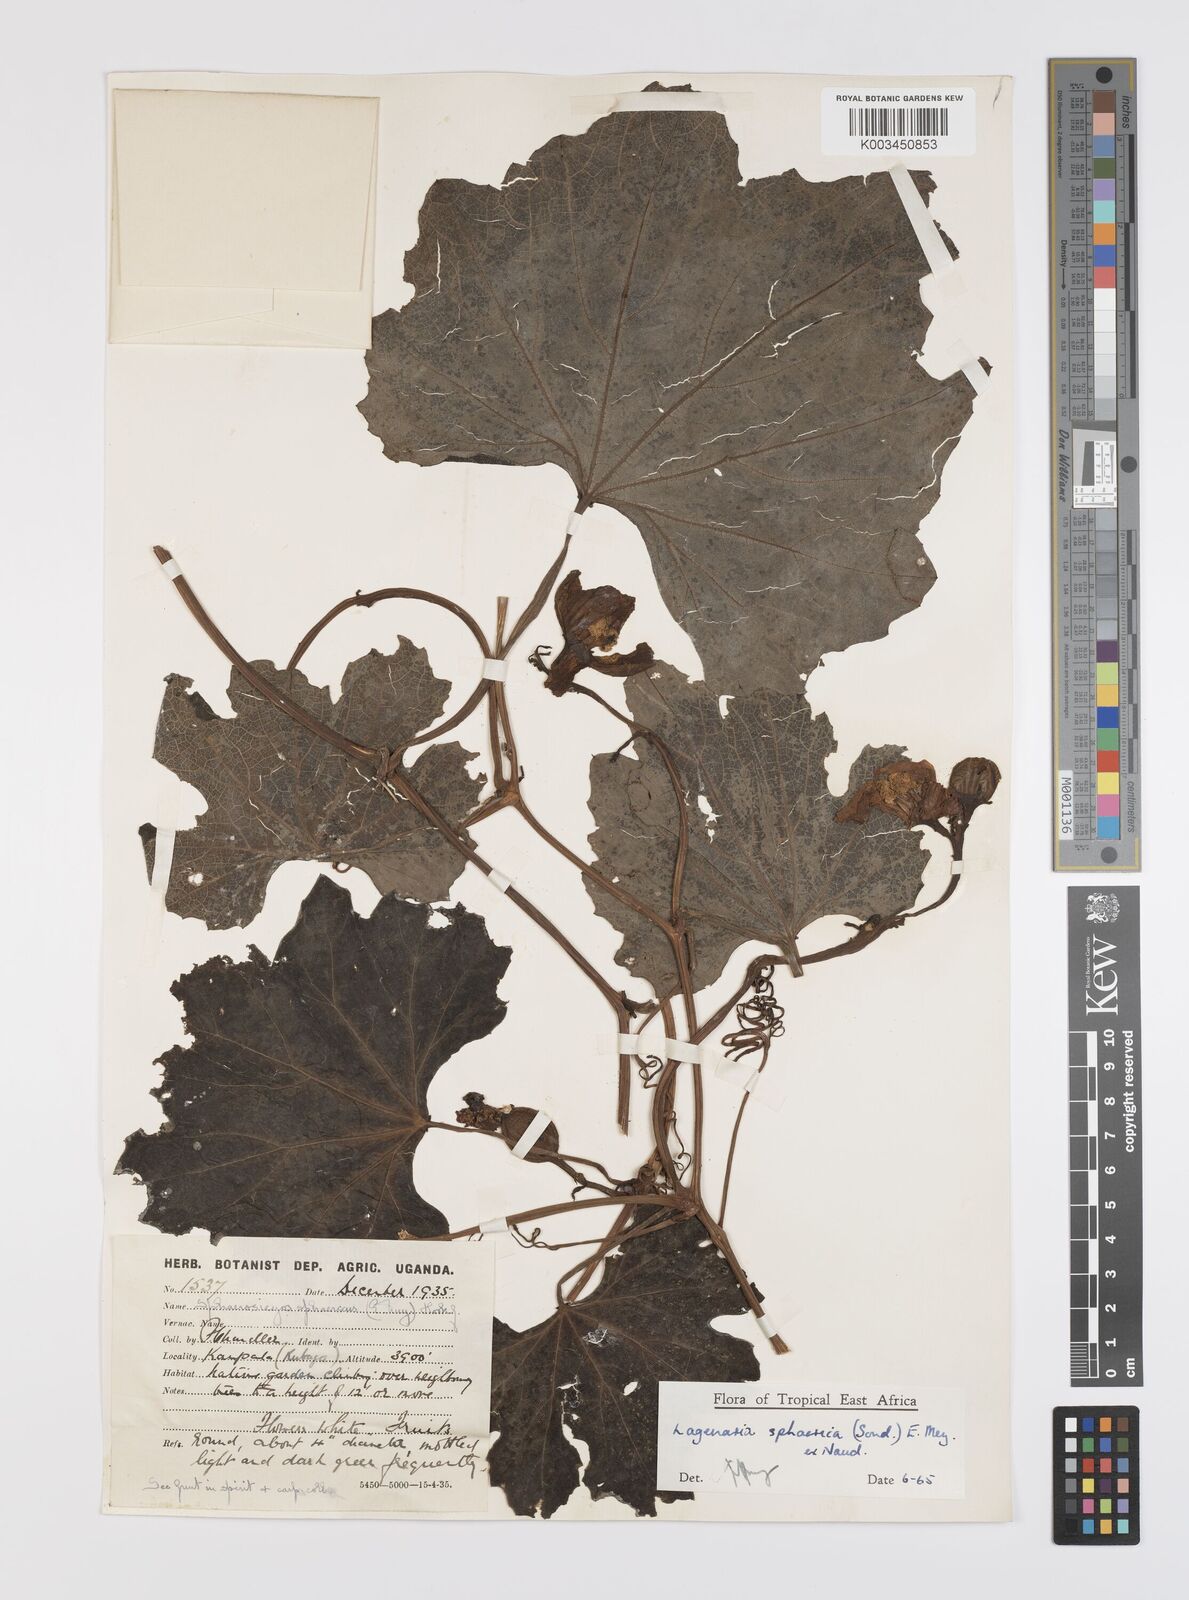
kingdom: Plantae
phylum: Tracheophyta
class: Magnoliopsida
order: Cucurbitales
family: Cucurbitaceae
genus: Lagenaria
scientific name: Lagenaria sphaerica
